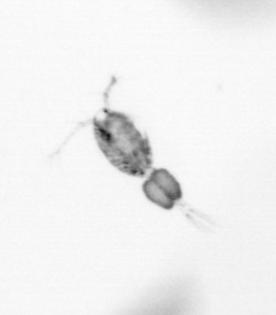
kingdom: Animalia
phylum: Arthropoda
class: Copepoda
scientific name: Copepoda
